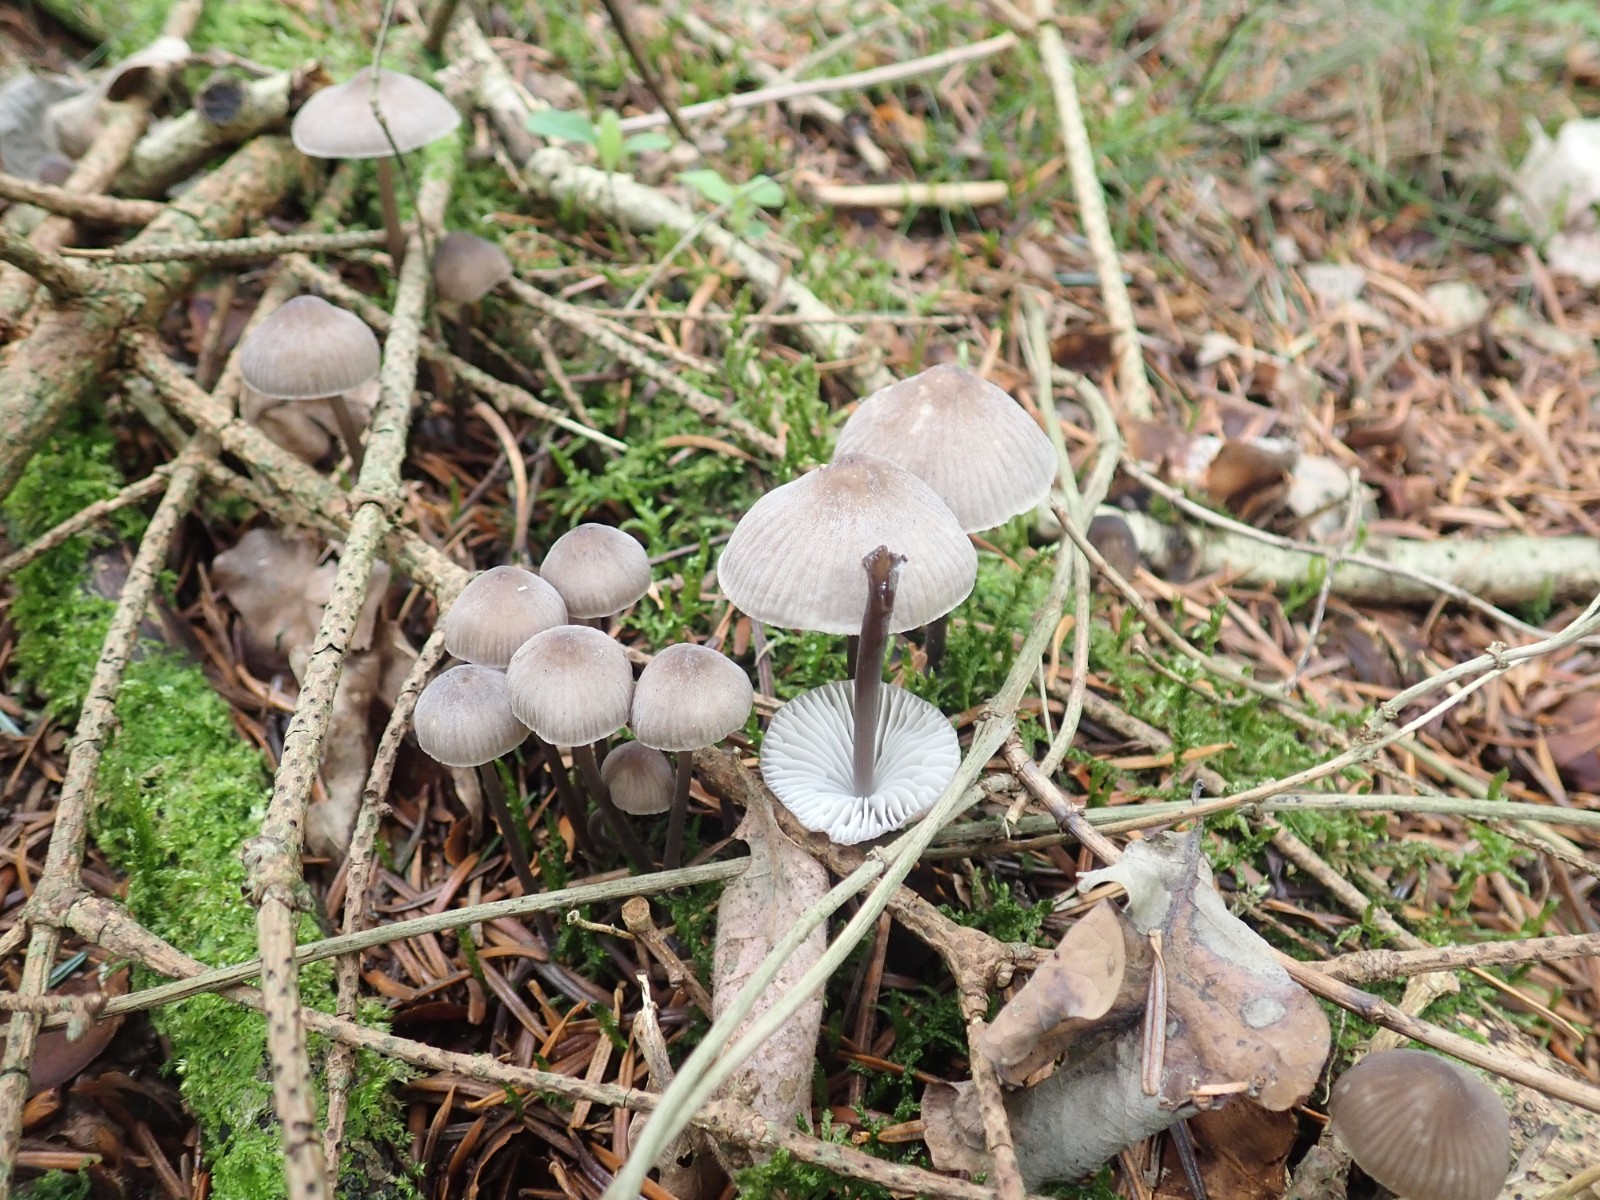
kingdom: Fungi
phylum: Basidiomycota
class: Agaricomycetes
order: Agaricales
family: Mycenaceae
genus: Mycena
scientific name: Mycena abramsii
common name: sommer-huesvamp
